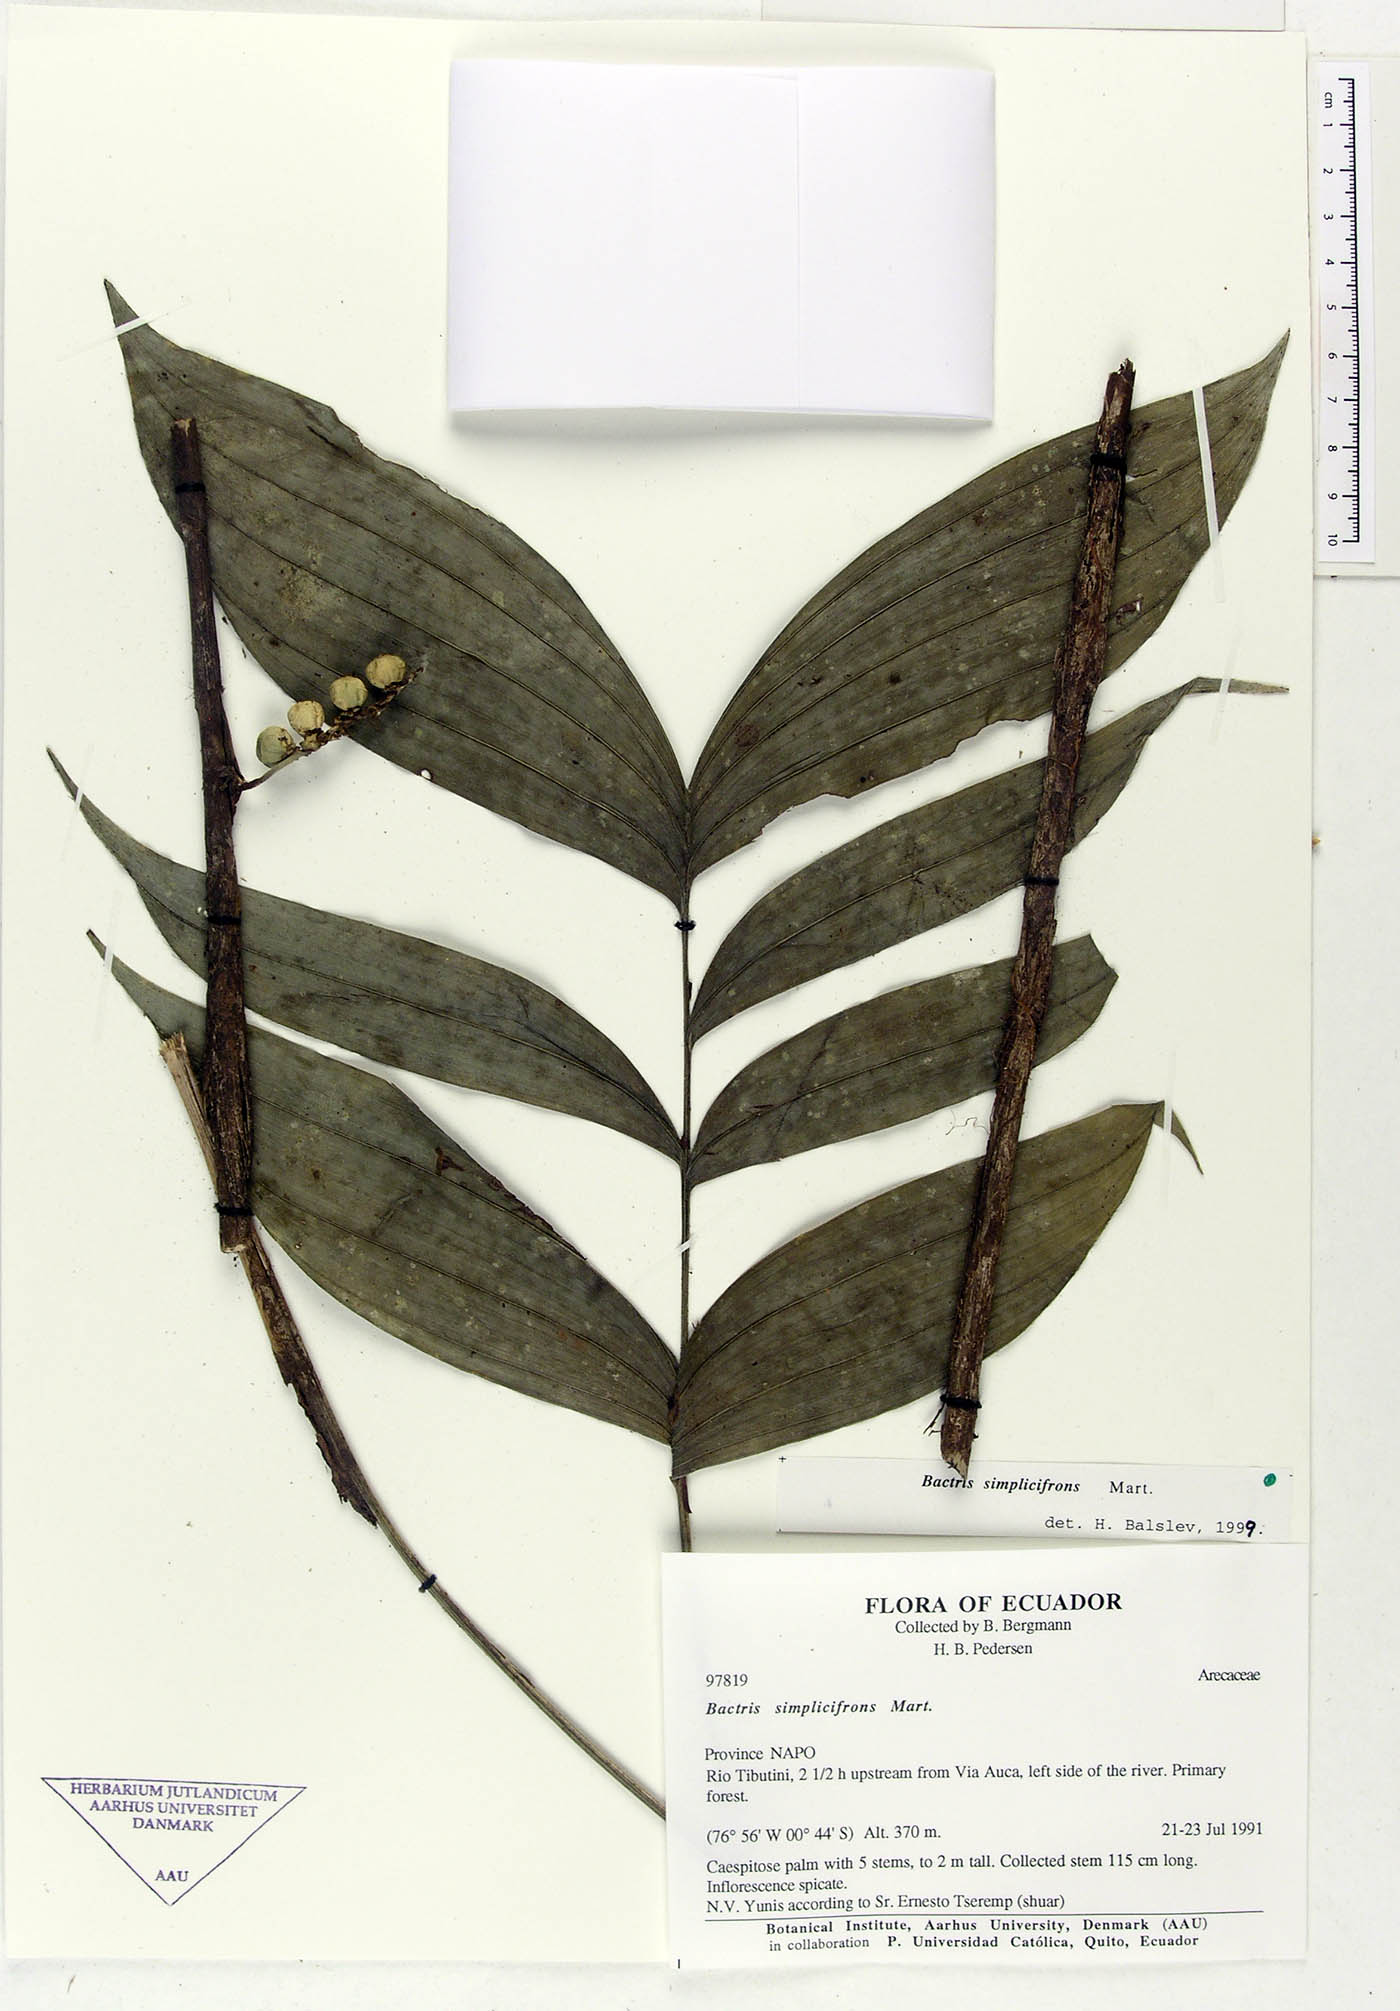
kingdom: Plantae
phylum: Tracheophyta
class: Liliopsida
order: Arecales
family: Arecaceae
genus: Bactris
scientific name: Bactris simplicifrons
